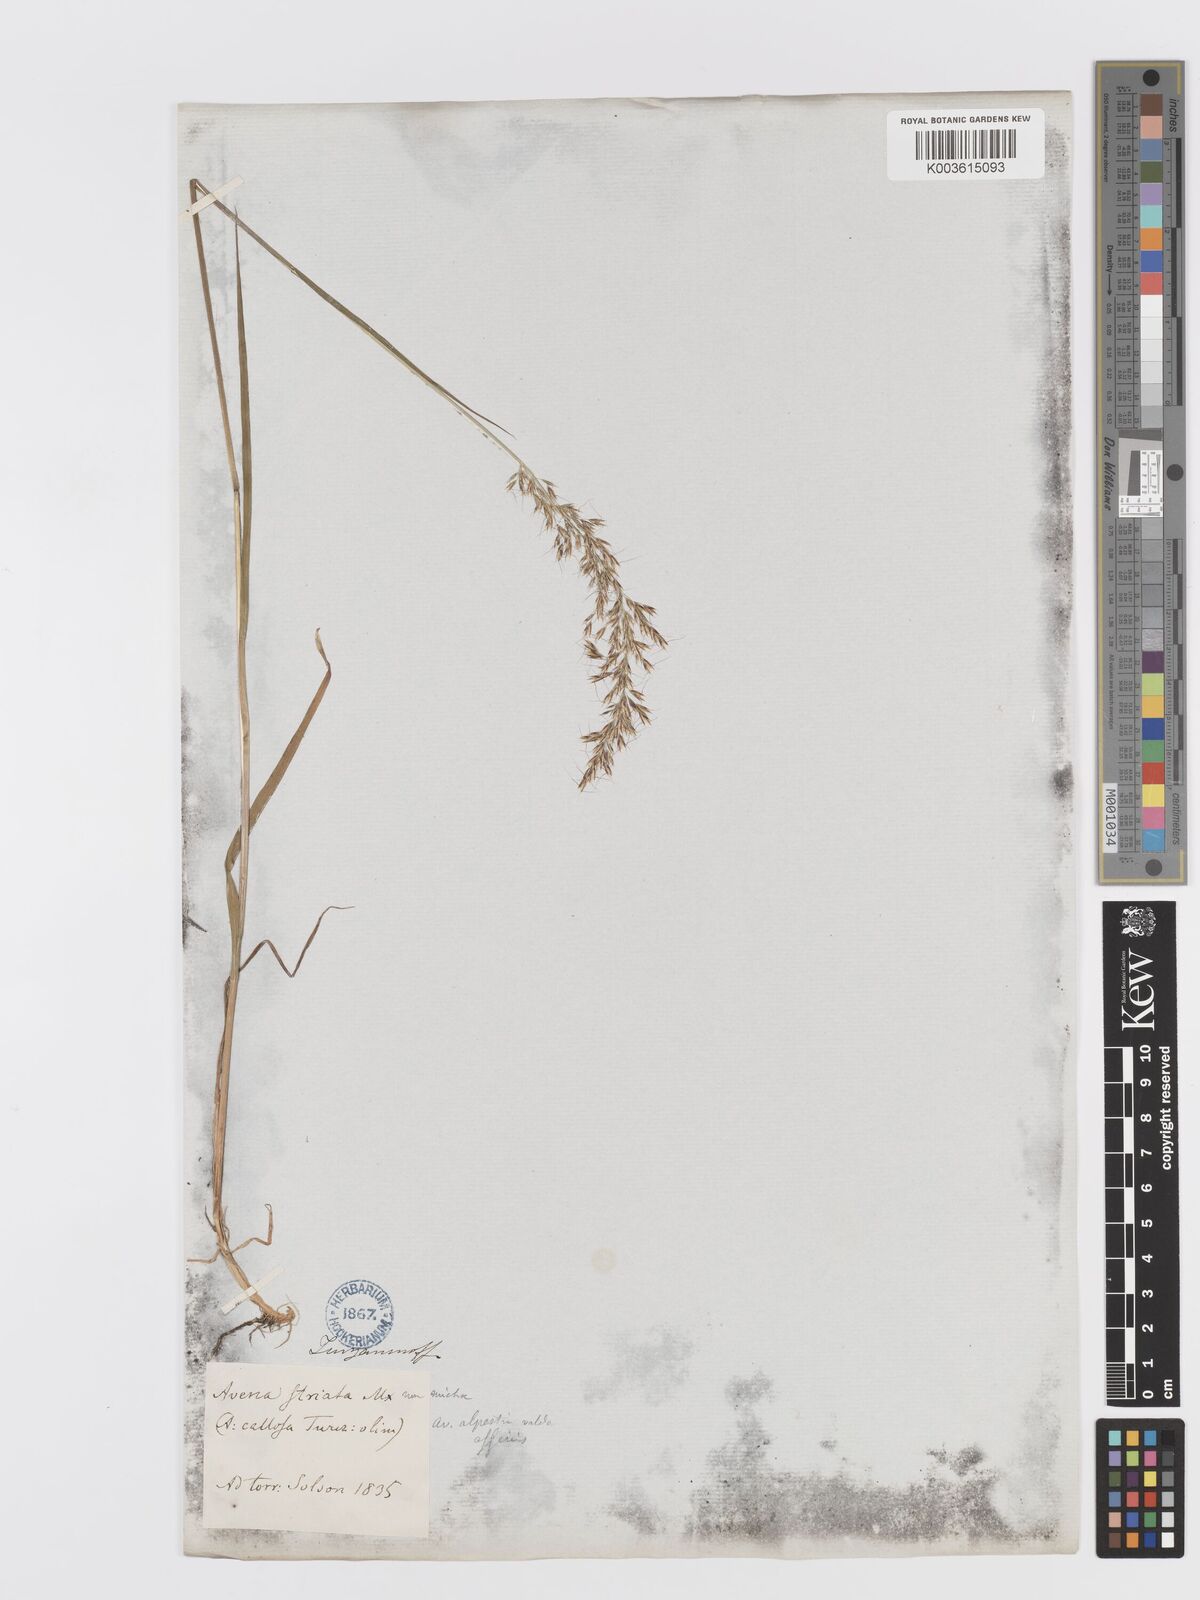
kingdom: Plantae
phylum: Tracheophyta
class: Liliopsida
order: Poales
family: Poaceae
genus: Sibirotrisetum
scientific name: Sibirotrisetum sibiricum
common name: Siberian false oat
